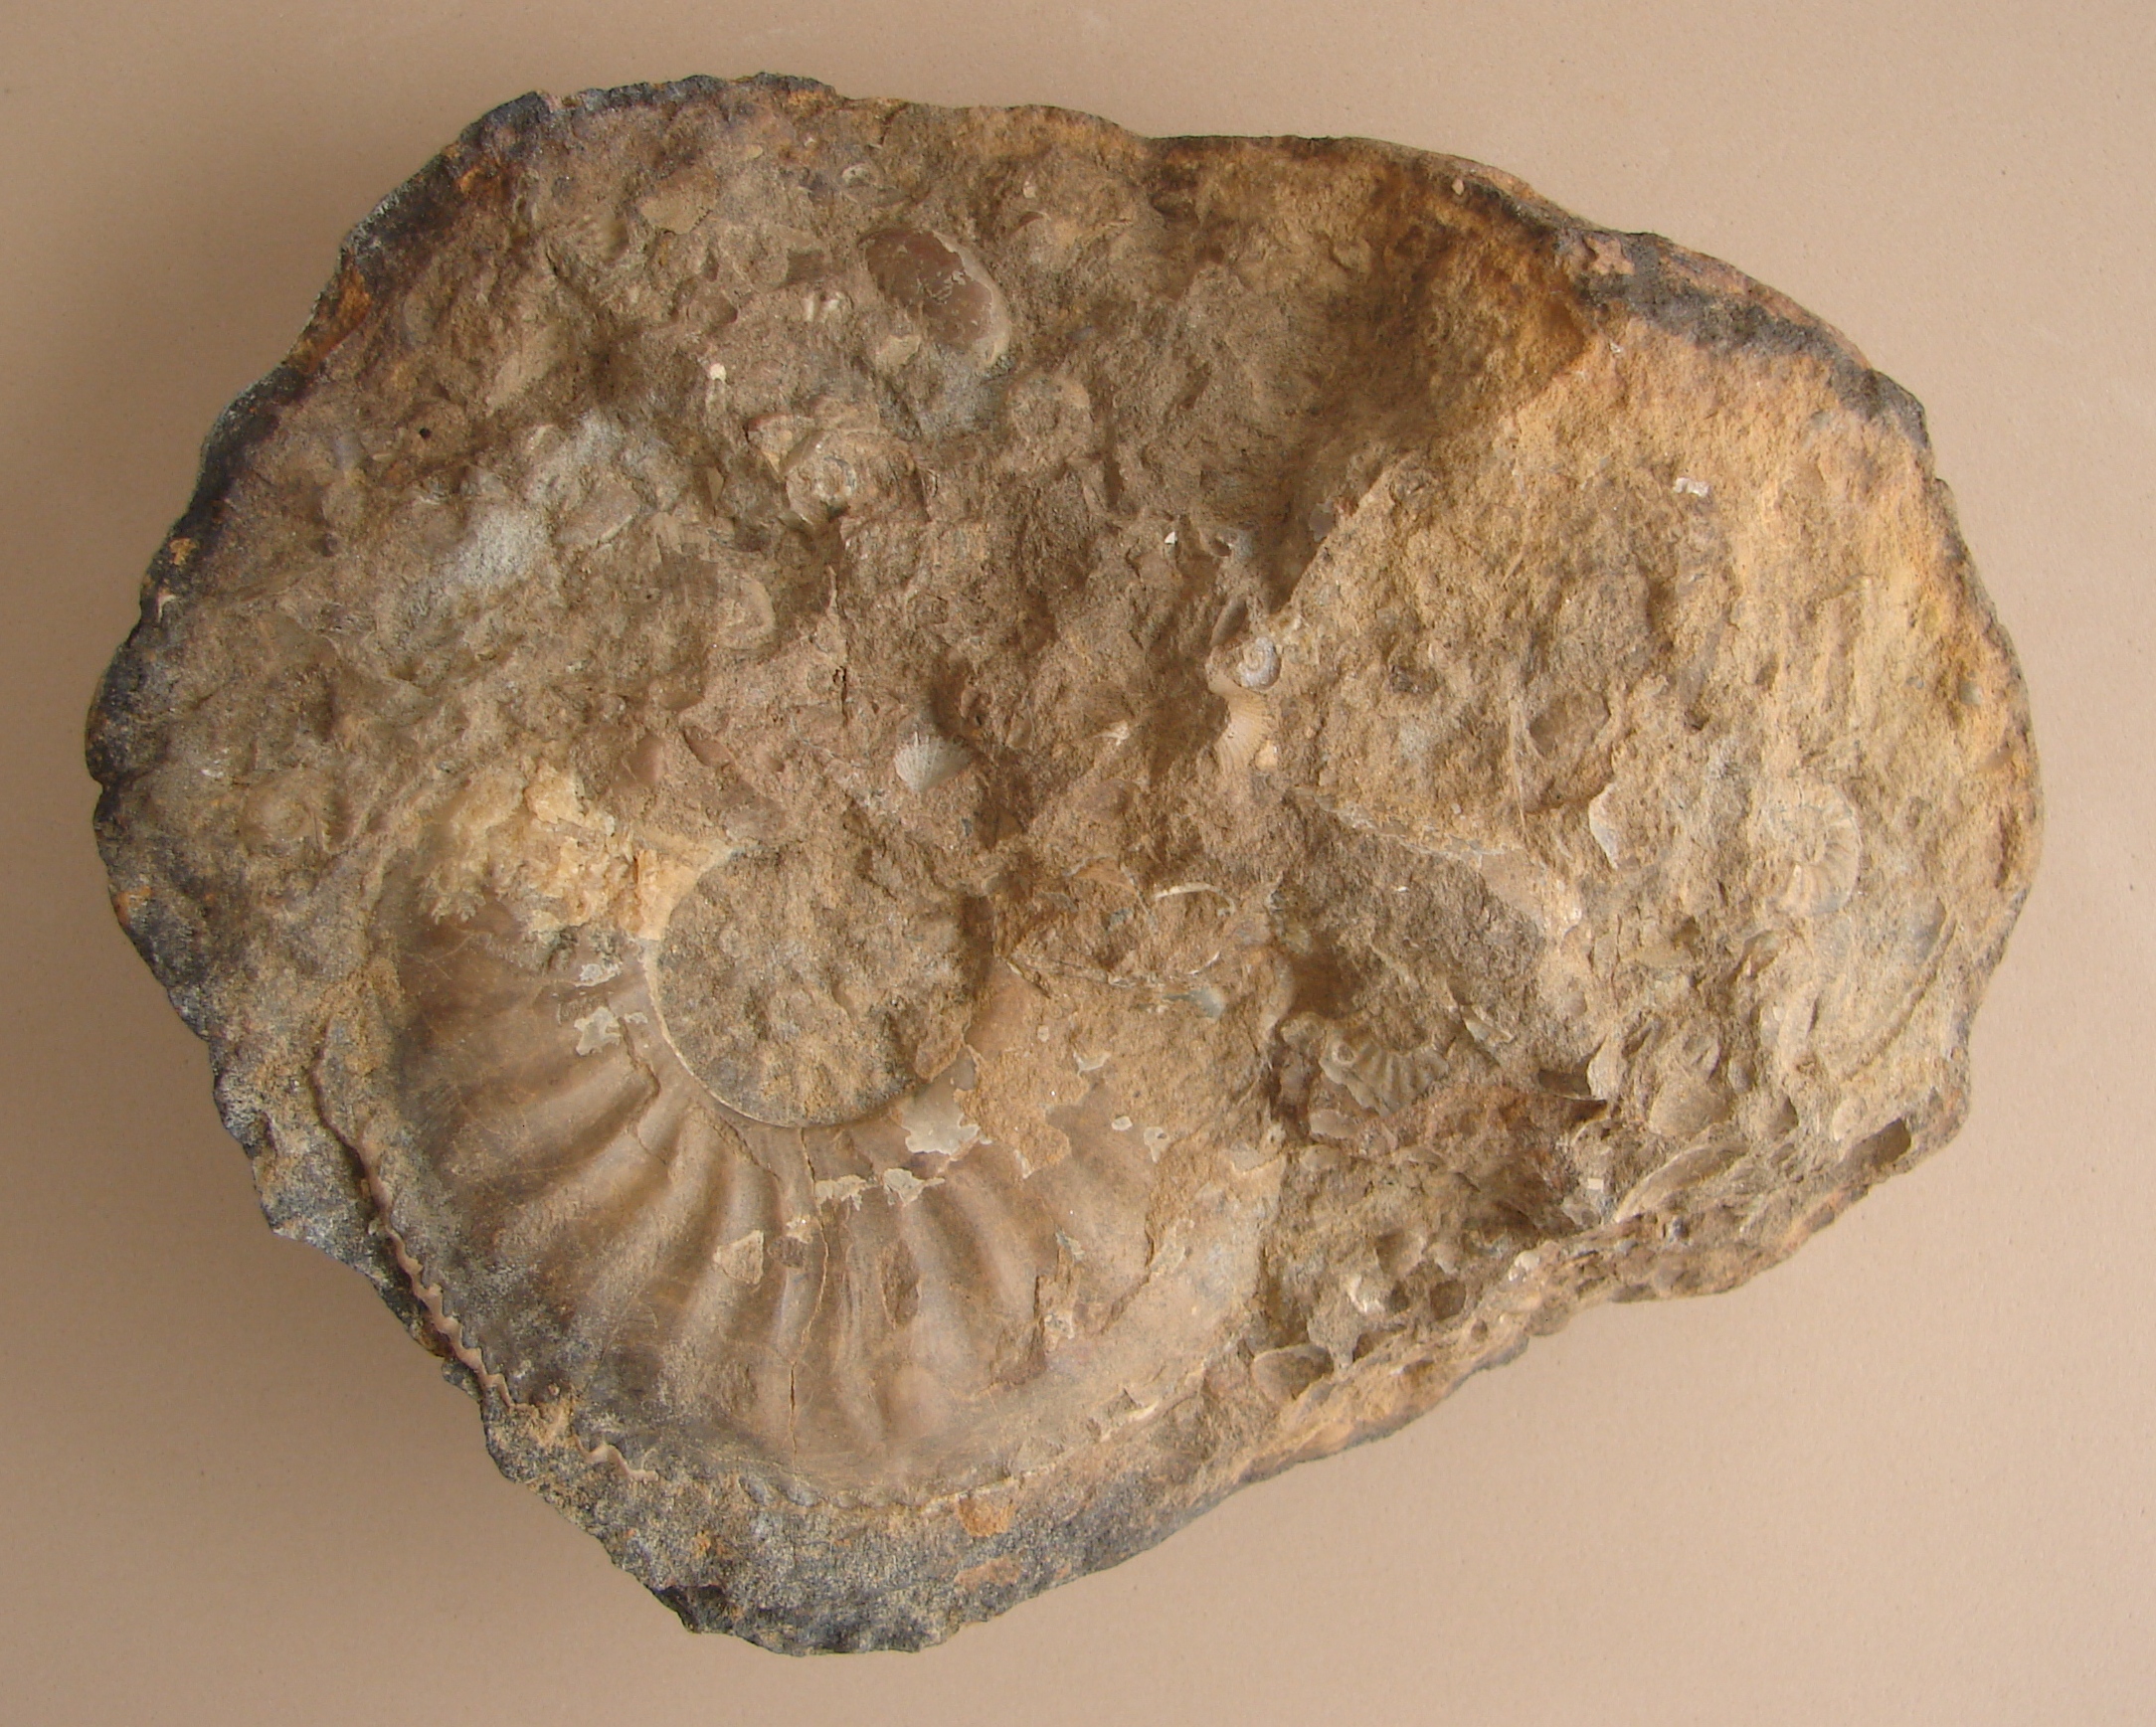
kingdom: Animalia
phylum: Mollusca
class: Cephalopoda
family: Amaltheidae
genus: Amaltheus
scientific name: Amaltheus
